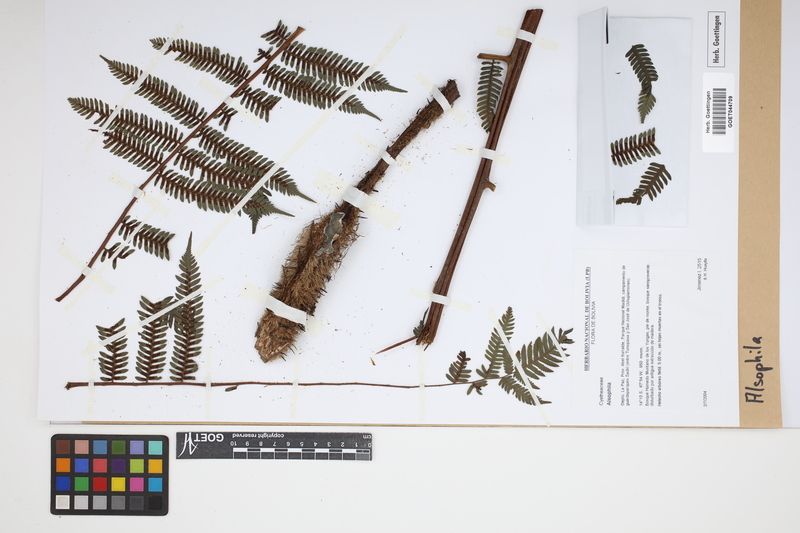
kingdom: Plantae
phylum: Tracheophyta
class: Polypodiopsida
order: Cyatheales
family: Cyatheaceae
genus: Alsophila
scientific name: Alsophila
